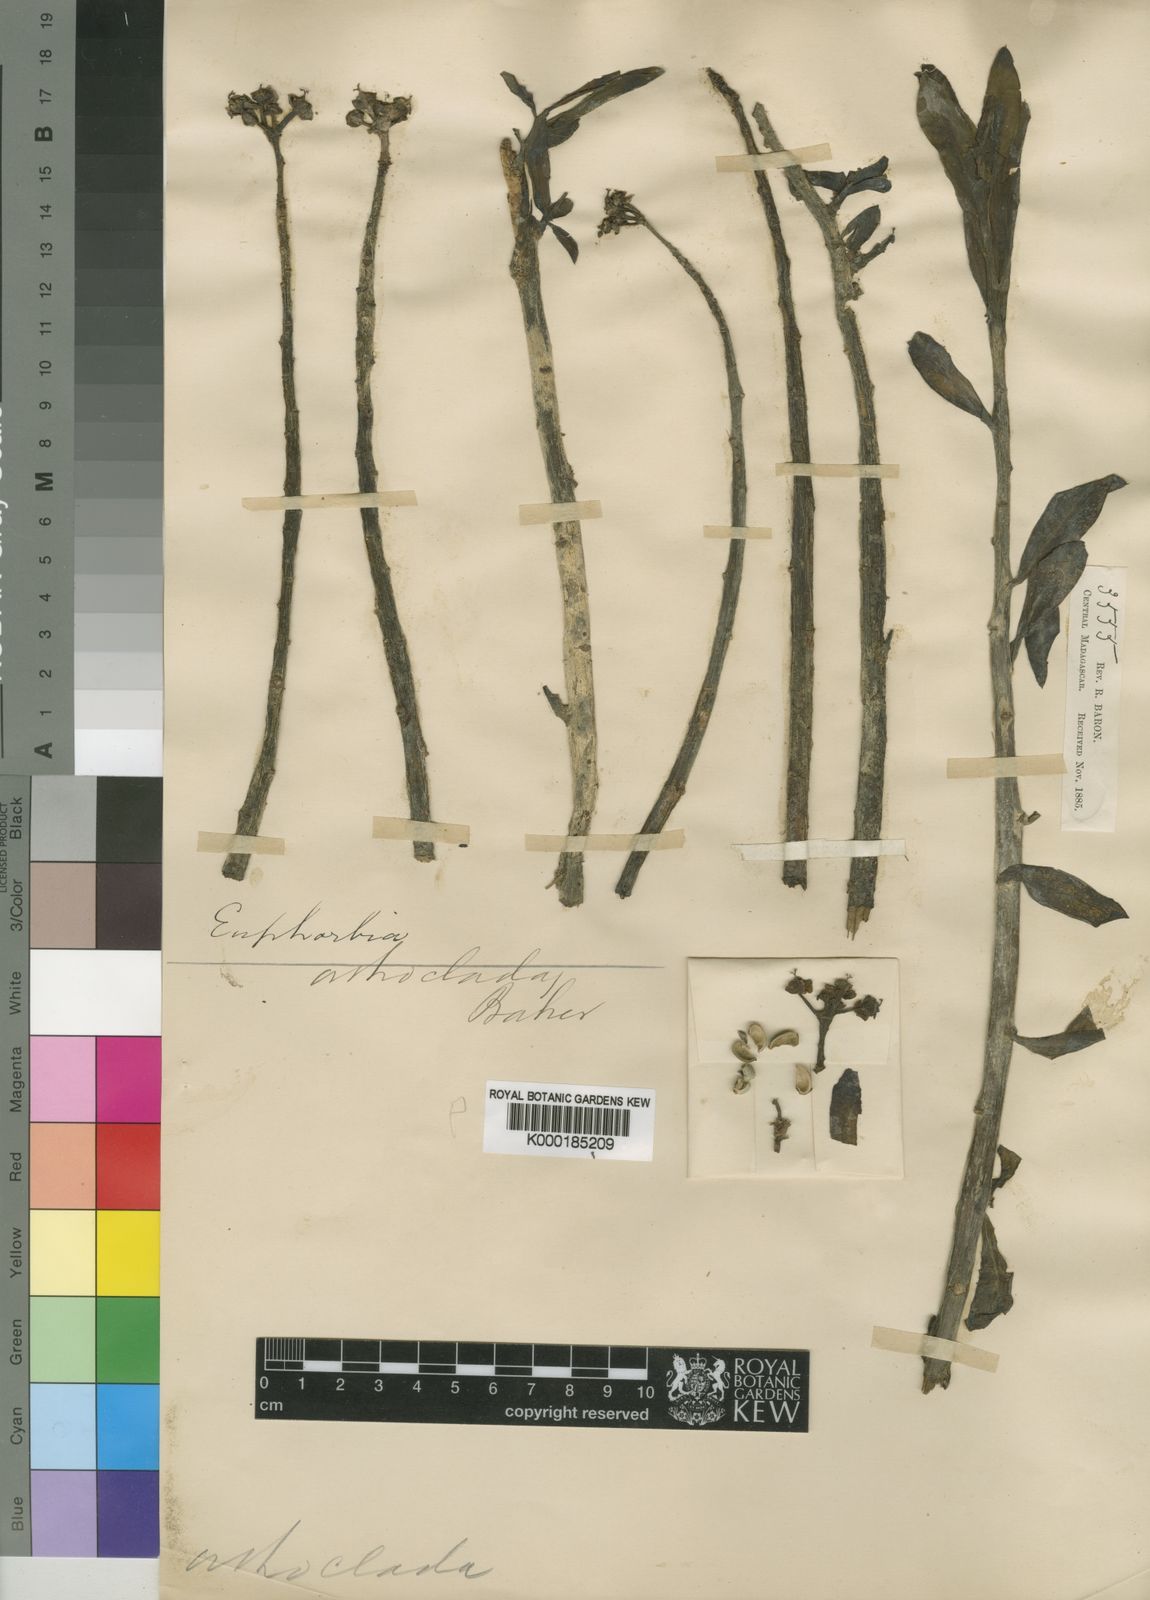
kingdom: Plantae
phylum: Tracheophyta
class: Magnoliopsida
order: Malpighiales
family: Euphorbiaceae
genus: Euphorbia
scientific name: Euphorbia orthoclada
